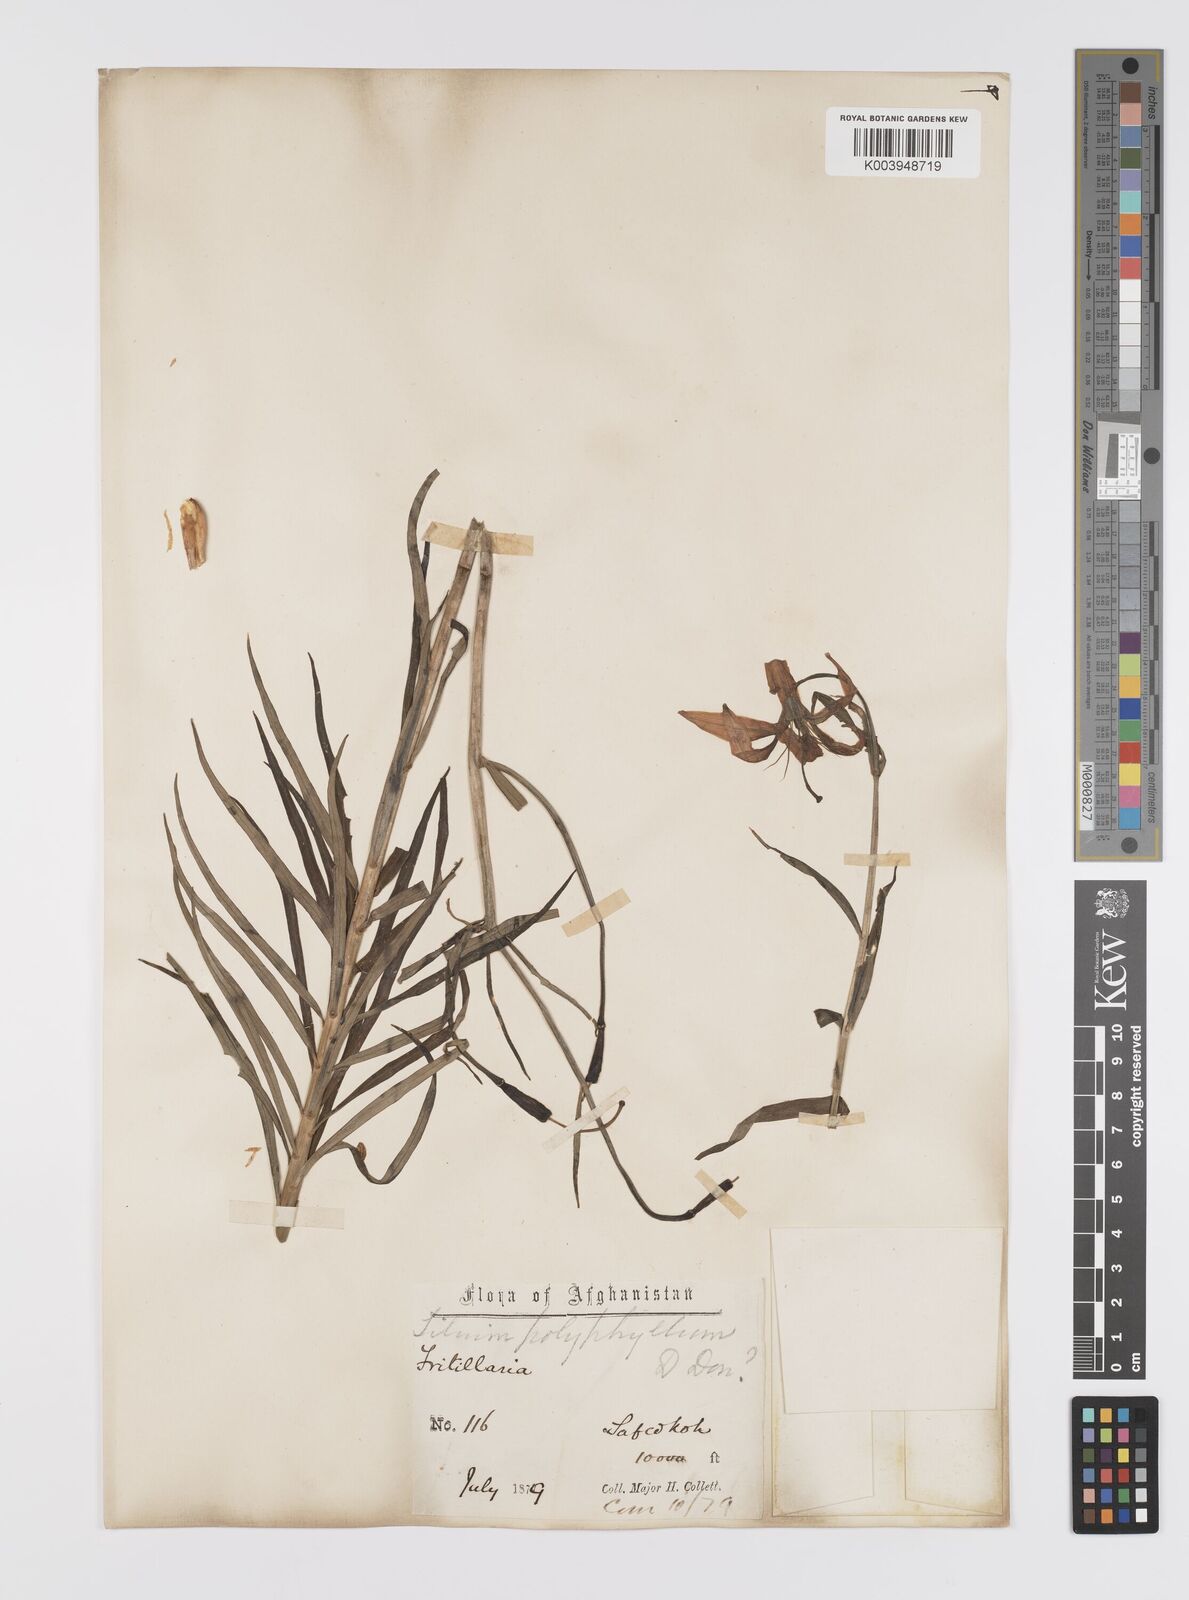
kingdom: Plantae
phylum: Tracheophyta
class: Liliopsida
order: Liliales
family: Liliaceae
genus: Lilium
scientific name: Lilium polyphyllum
